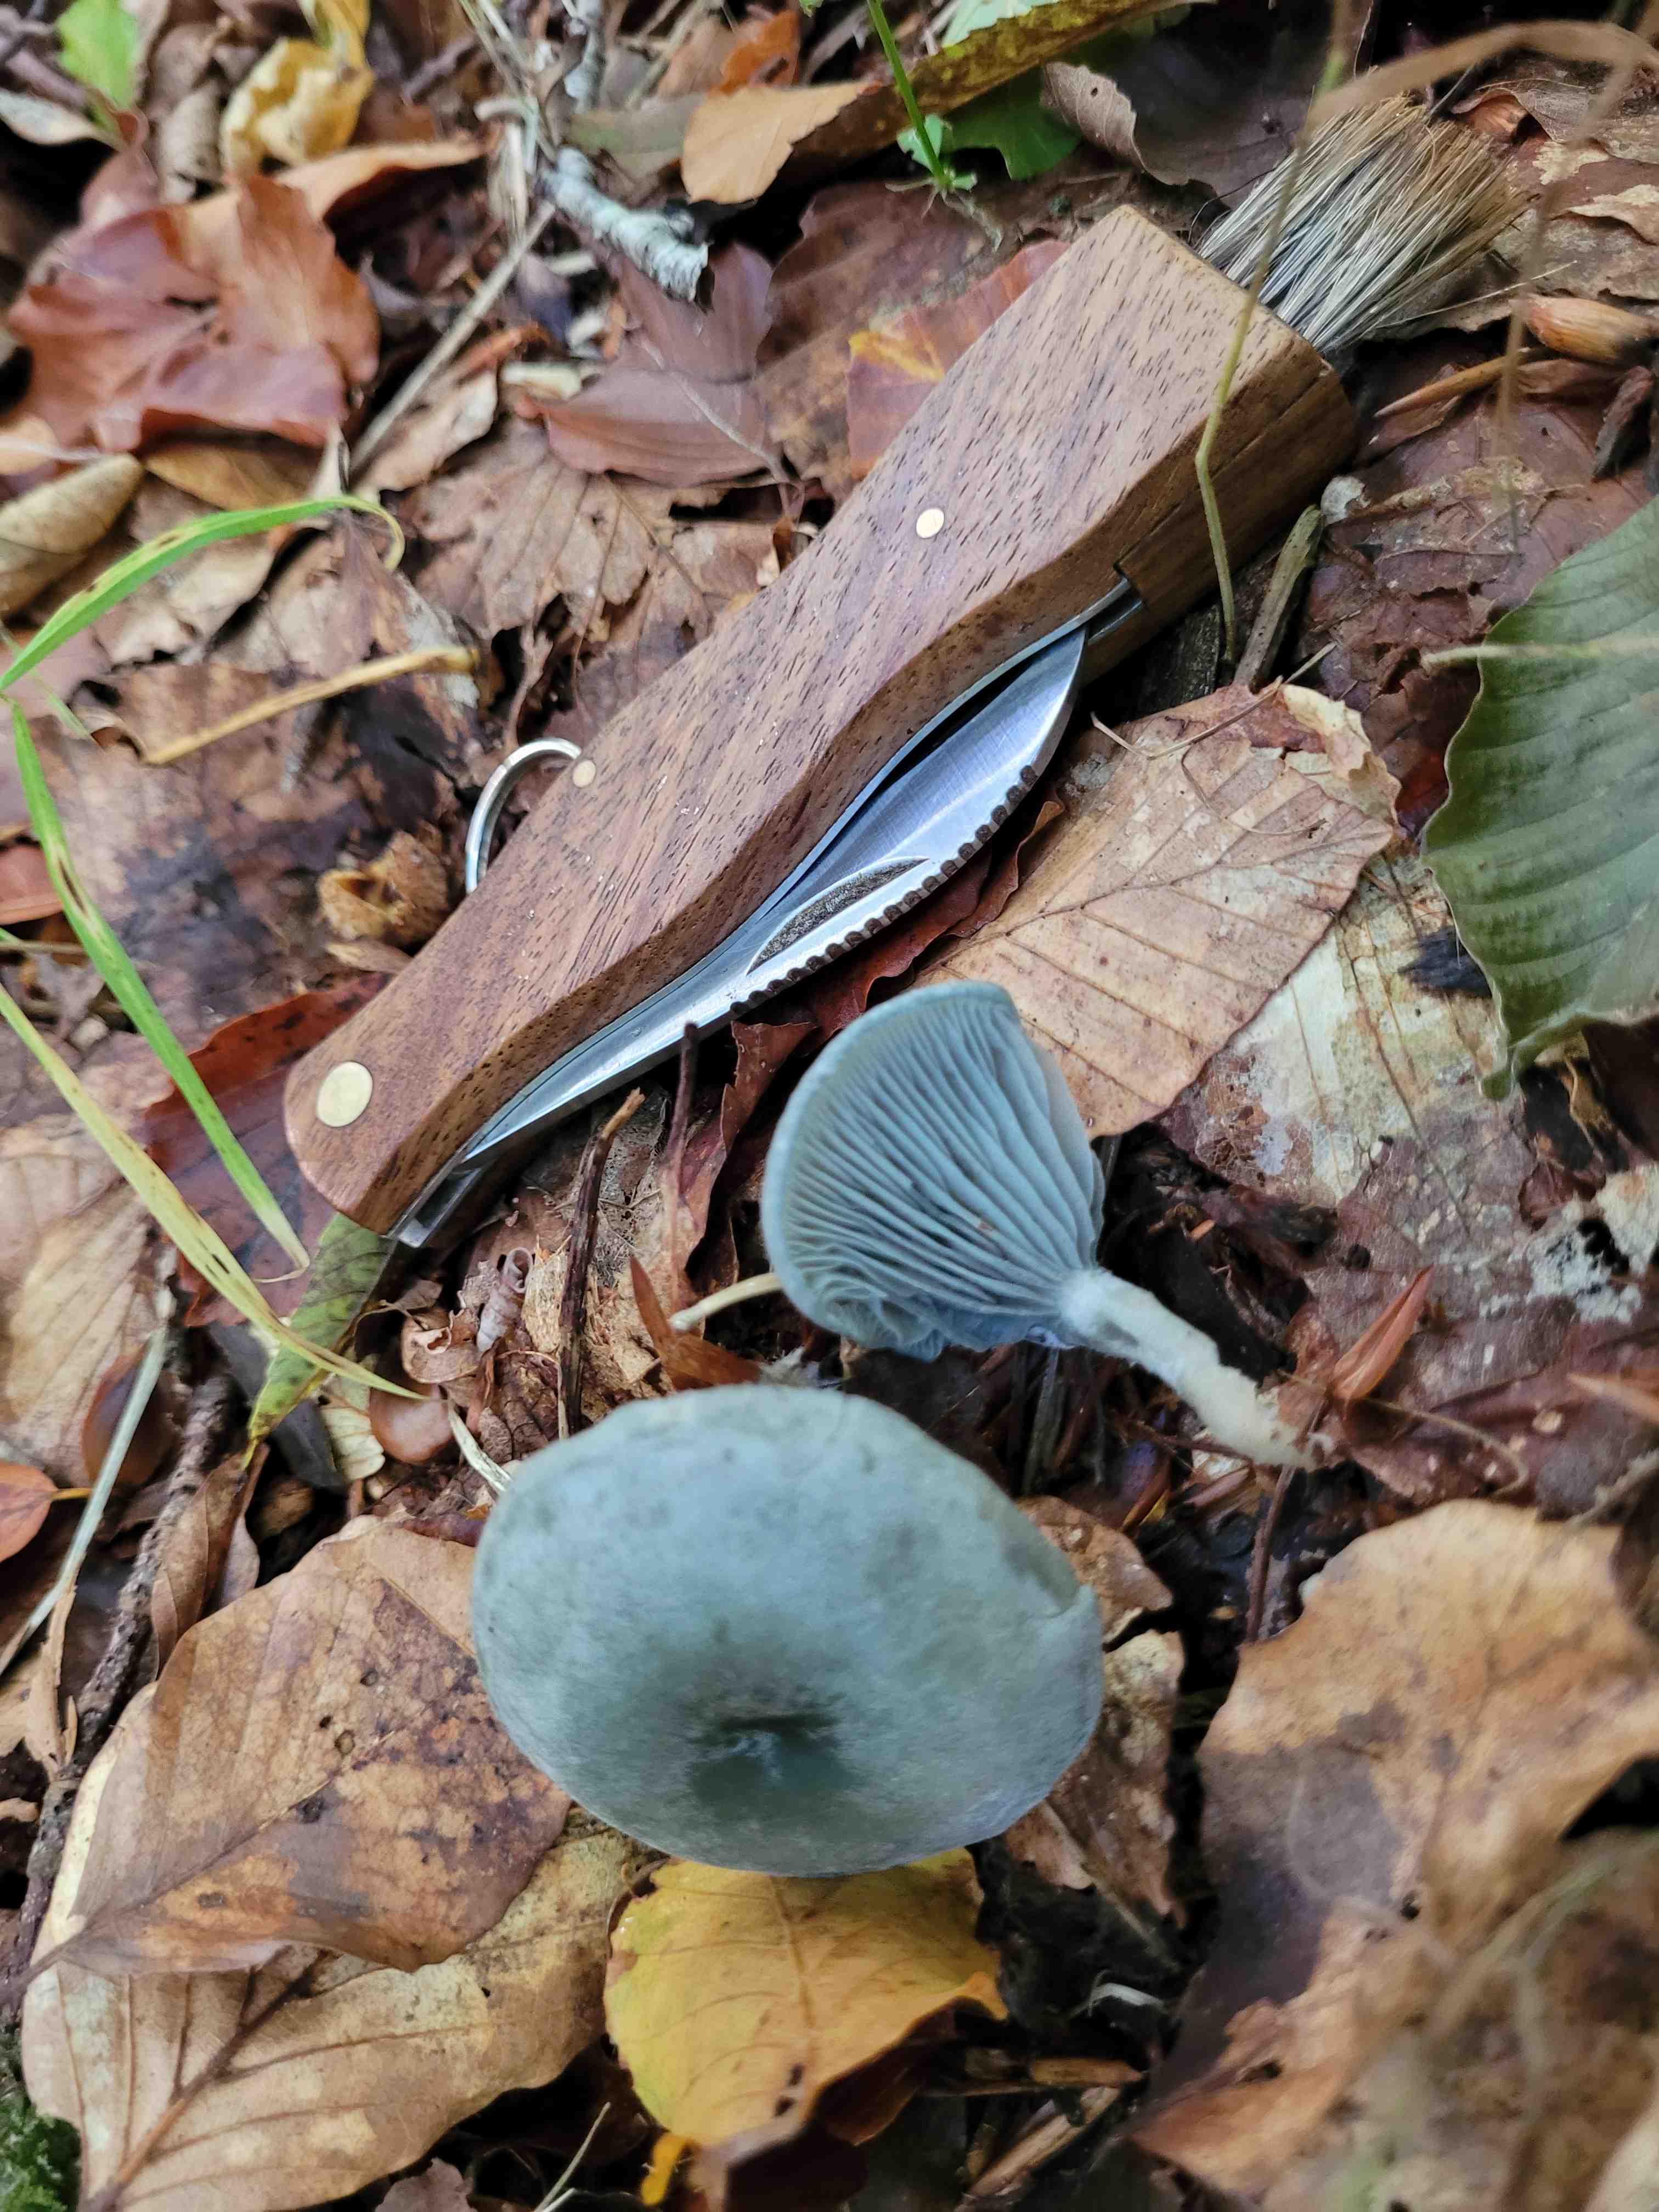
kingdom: Fungi
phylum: Basidiomycota
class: Agaricomycetes
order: Agaricales
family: Tricholomataceae
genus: Clitocybe
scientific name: Clitocybe odora
